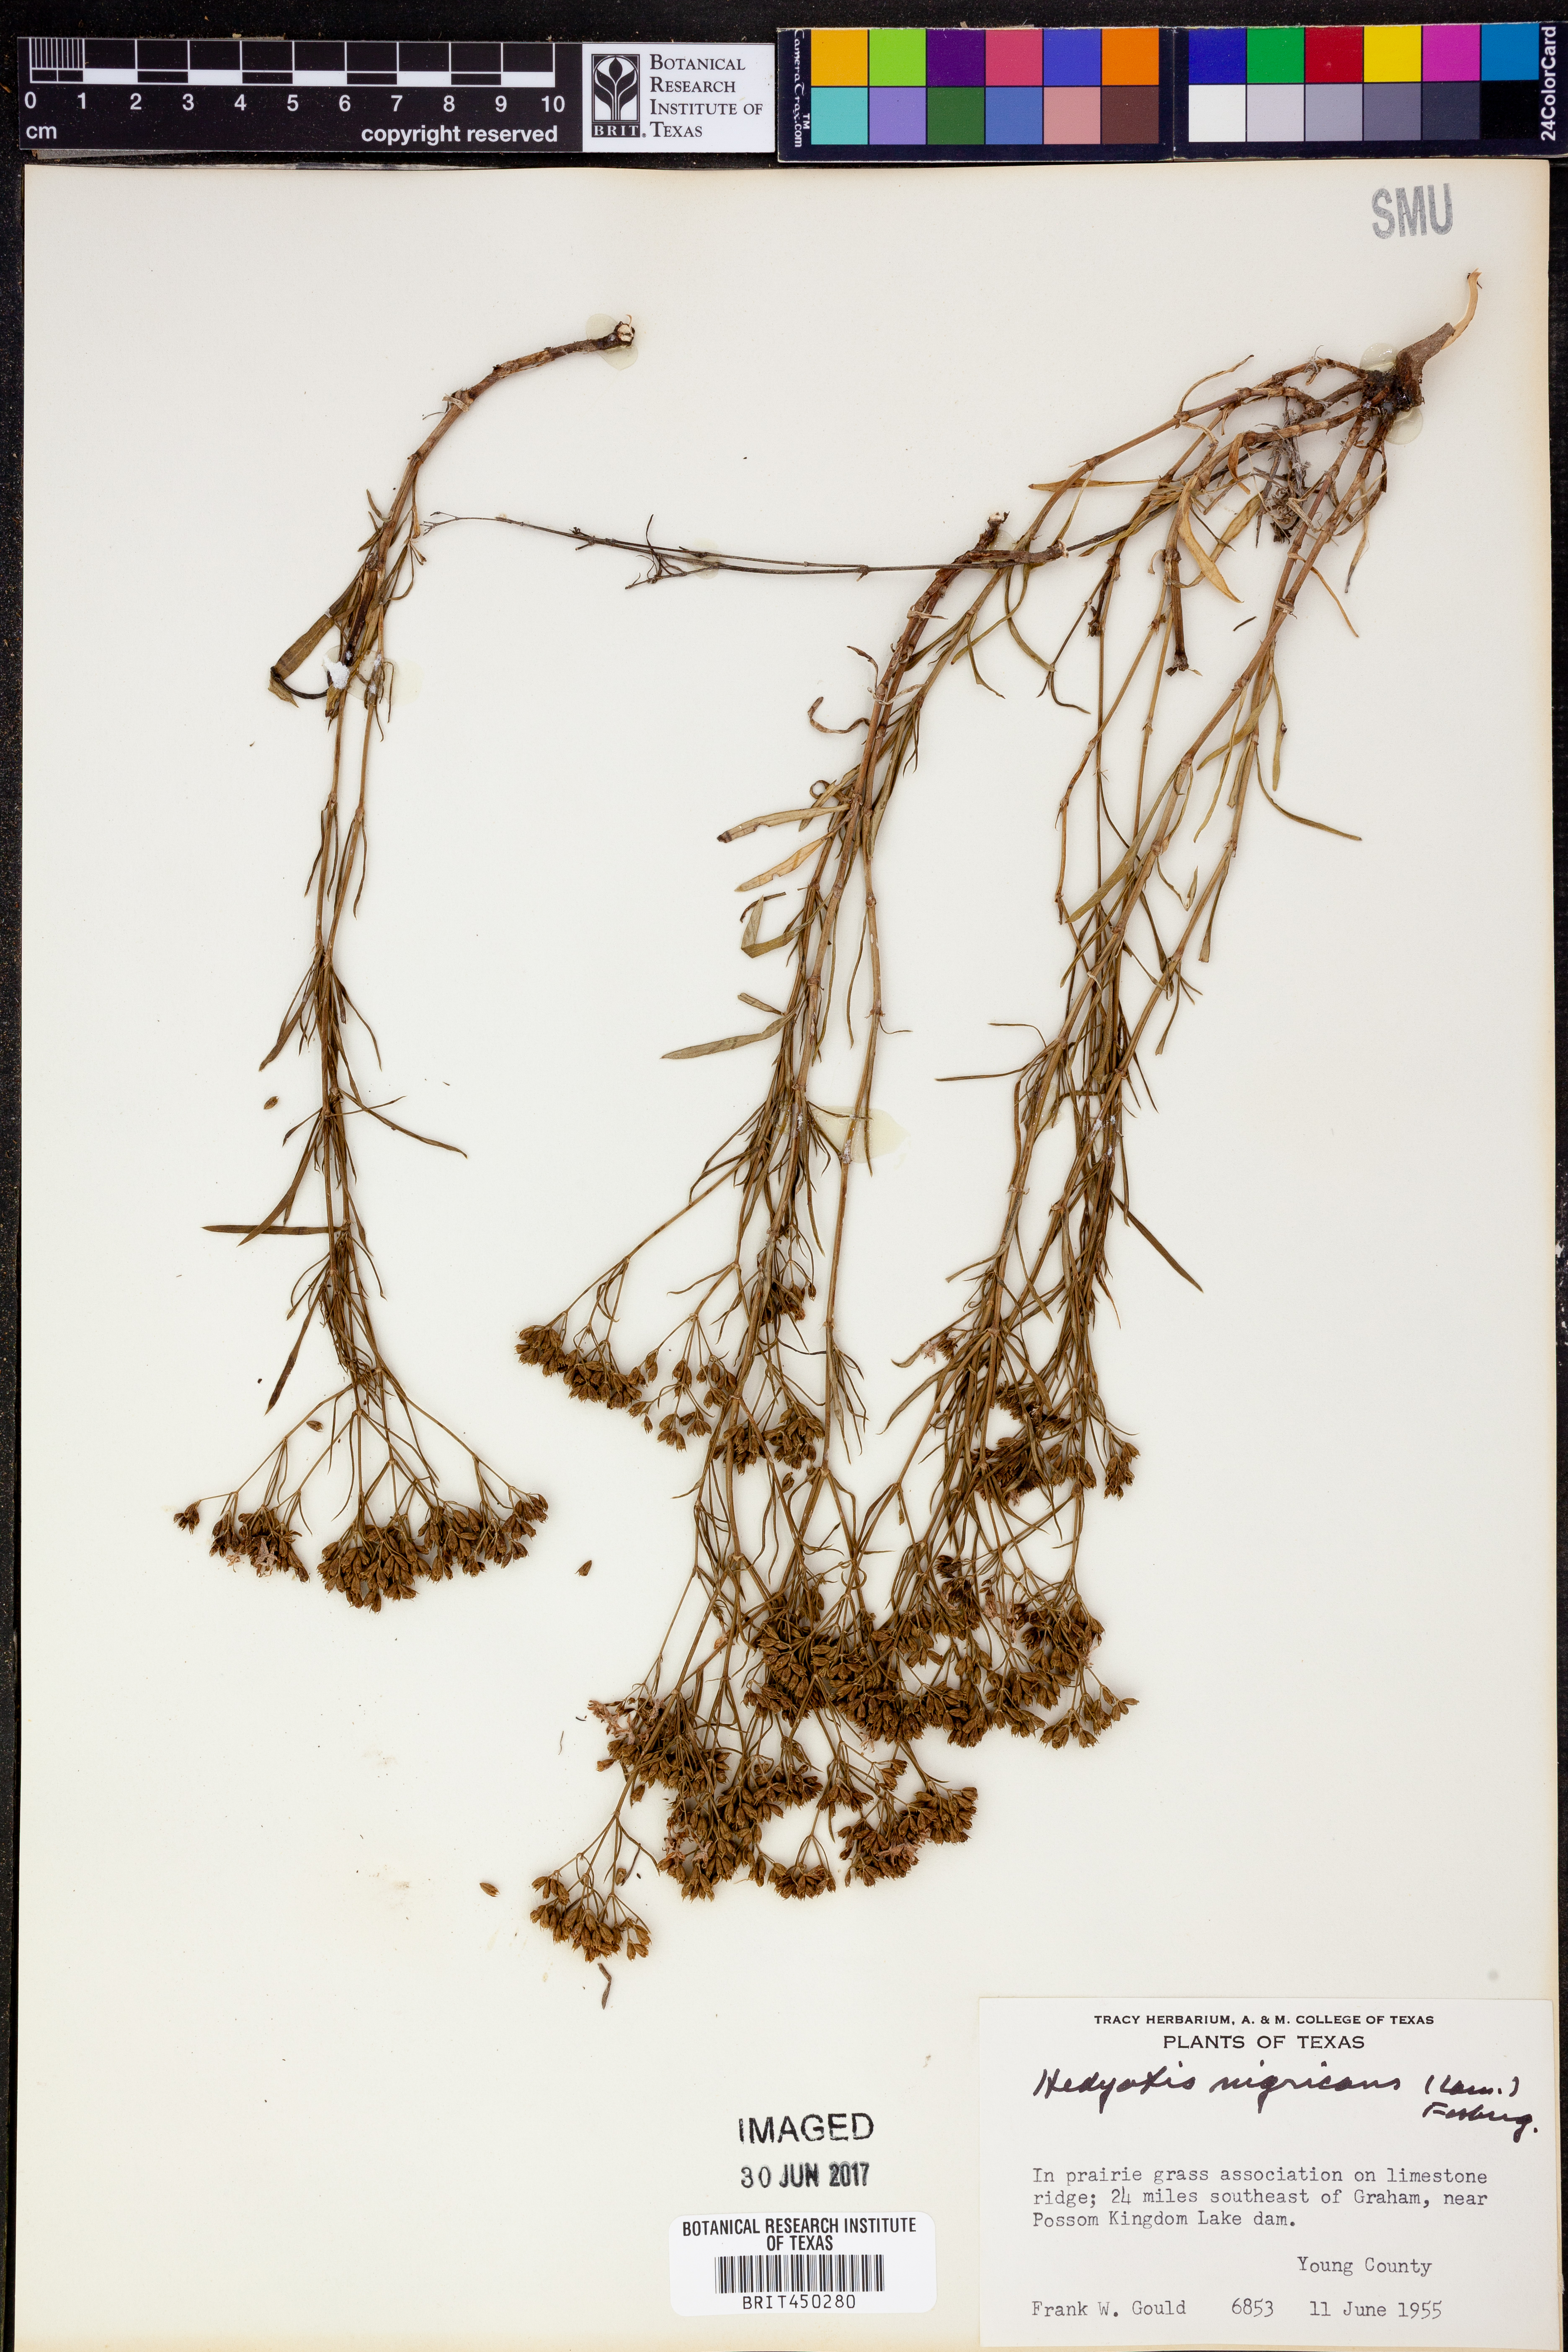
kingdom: Plantae
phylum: Tracheophyta
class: Magnoliopsida
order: Gentianales
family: Rubiaceae
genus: Stenaria
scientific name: Stenaria nigricans
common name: Diamondflowers
